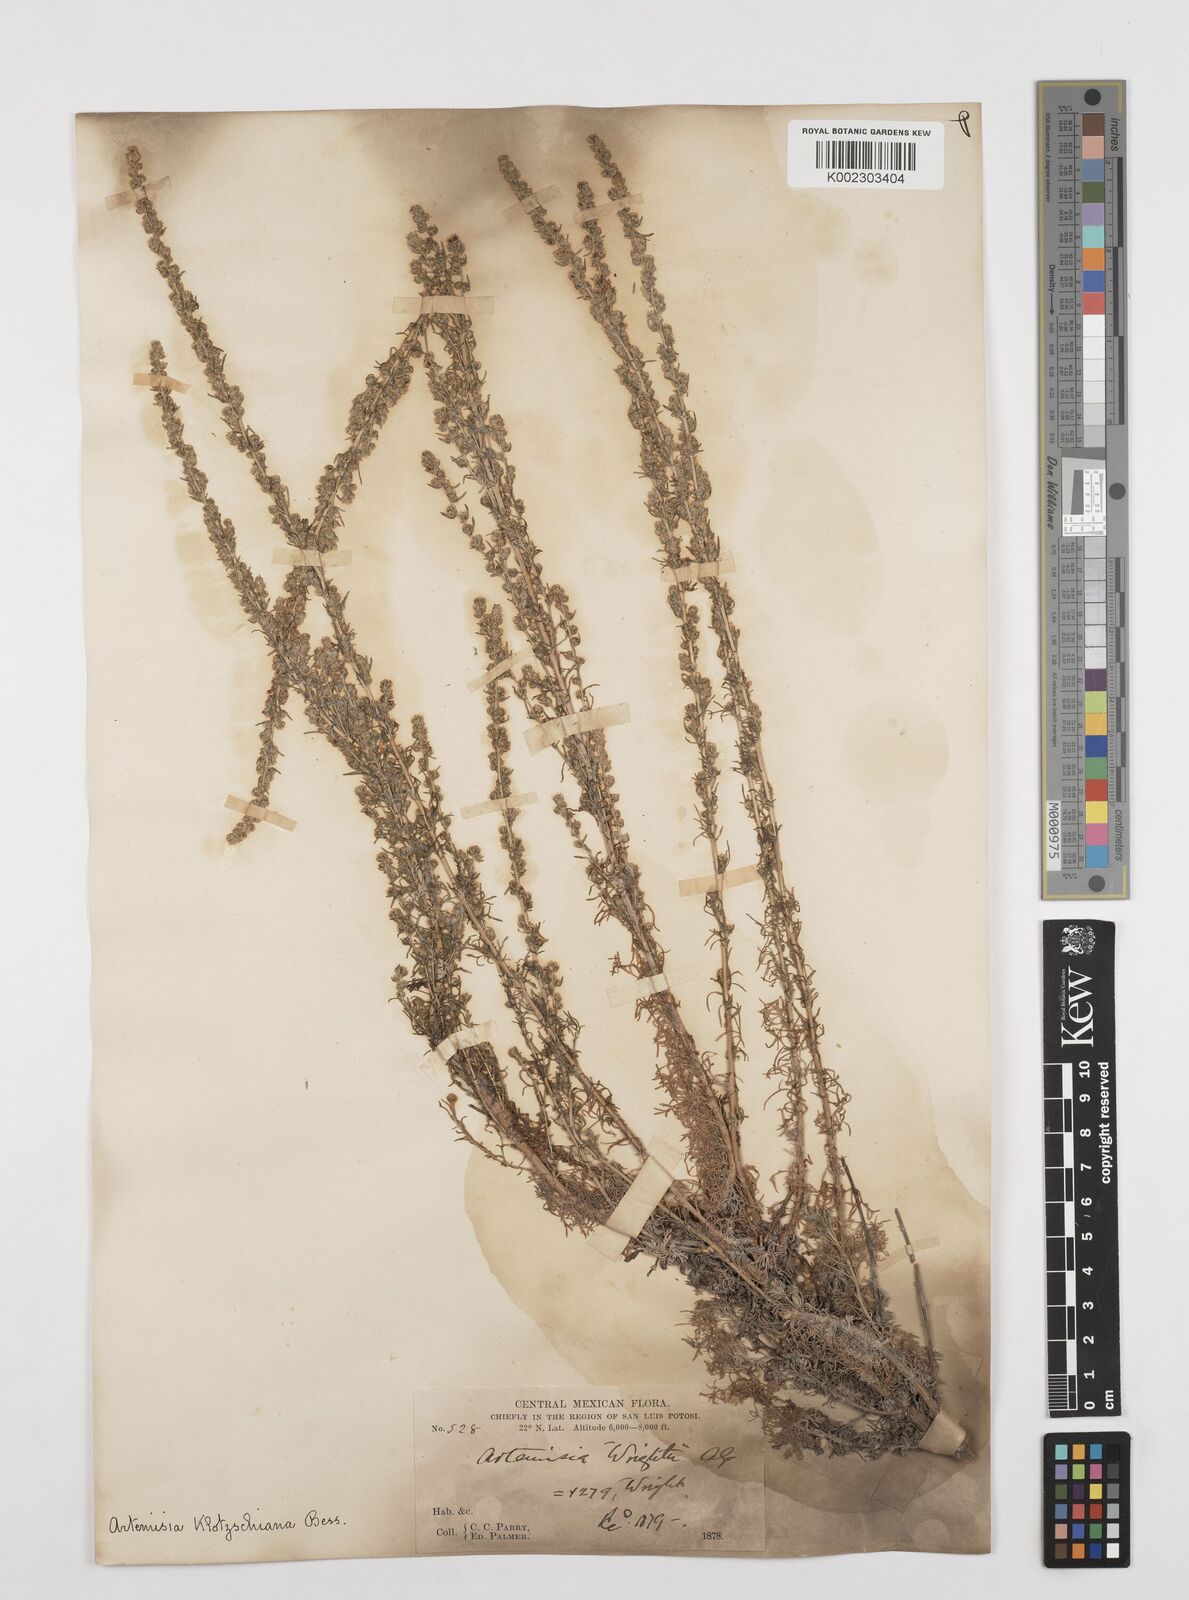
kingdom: Plantae
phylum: Tracheophyta
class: Magnoliopsida
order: Asterales
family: Asteraceae
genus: Artemisia
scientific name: Artemisia klotzschiana
